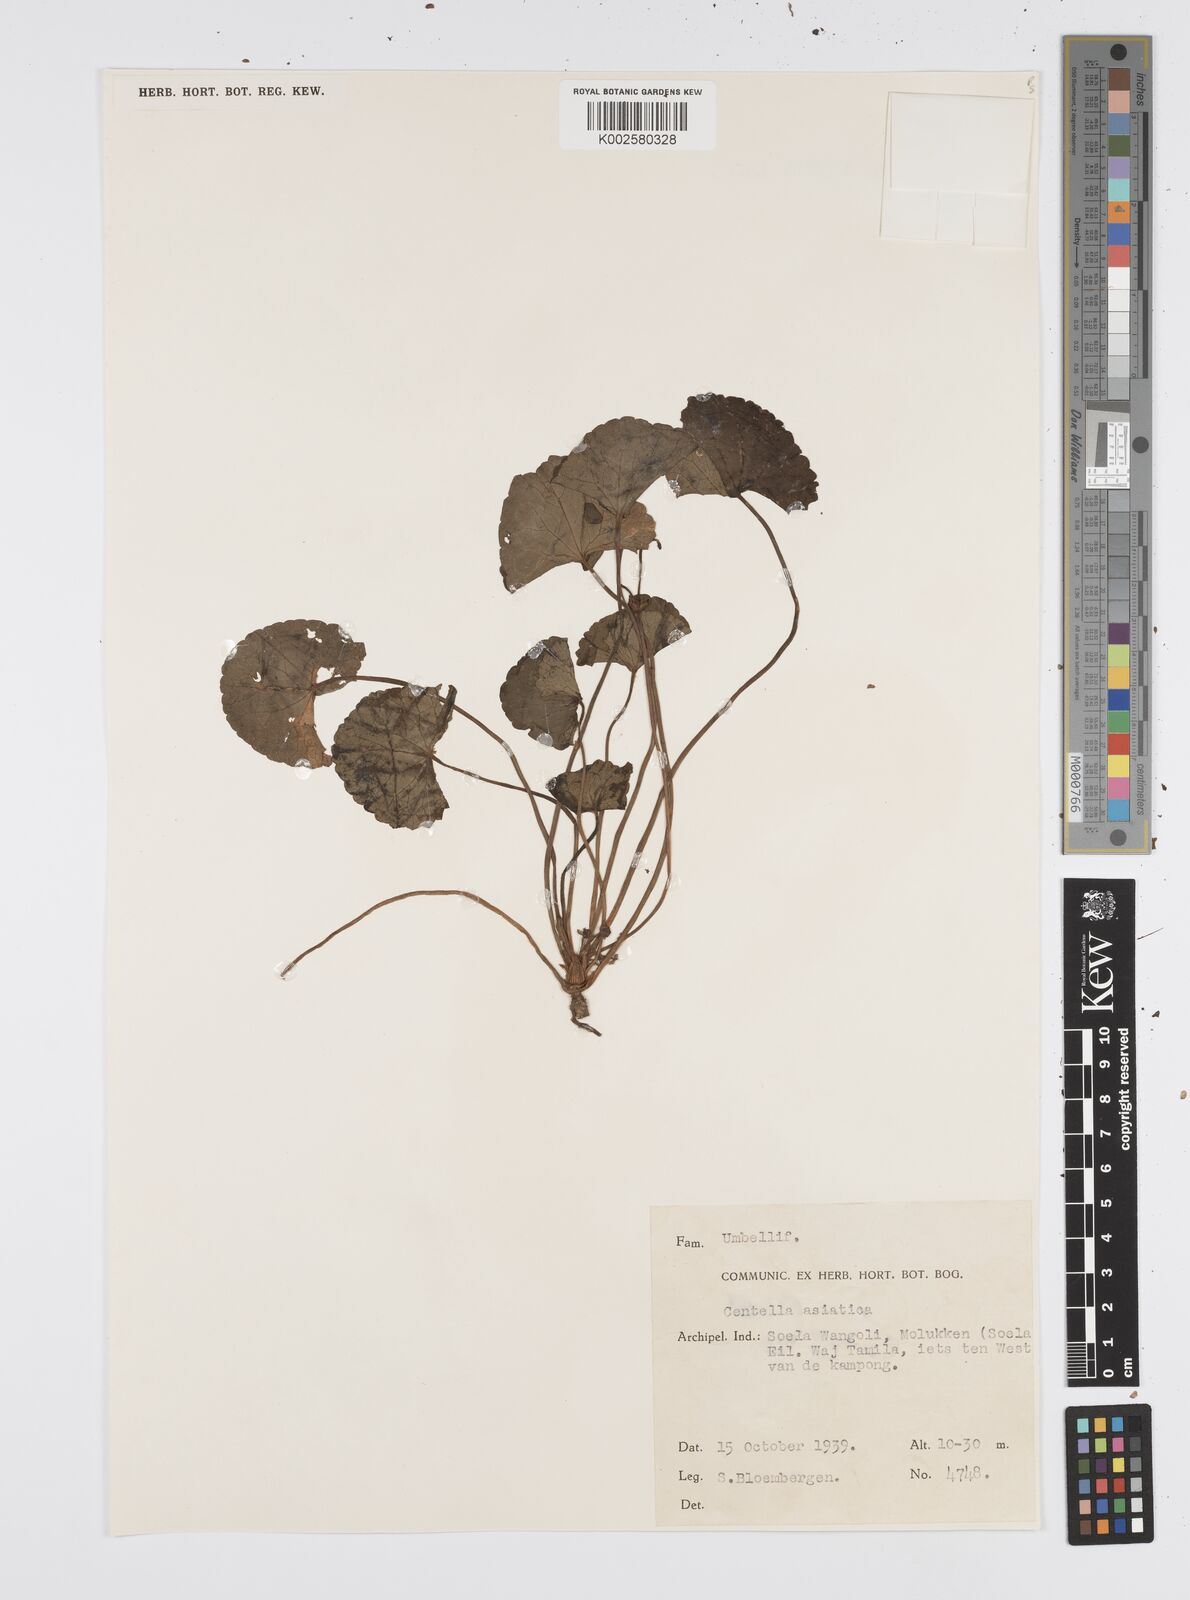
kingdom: Plantae
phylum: Tracheophyta
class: Magnoliopsida
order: Apiales
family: Apiaceae
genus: Centella
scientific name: Centella asiatica
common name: Spadeleaf
